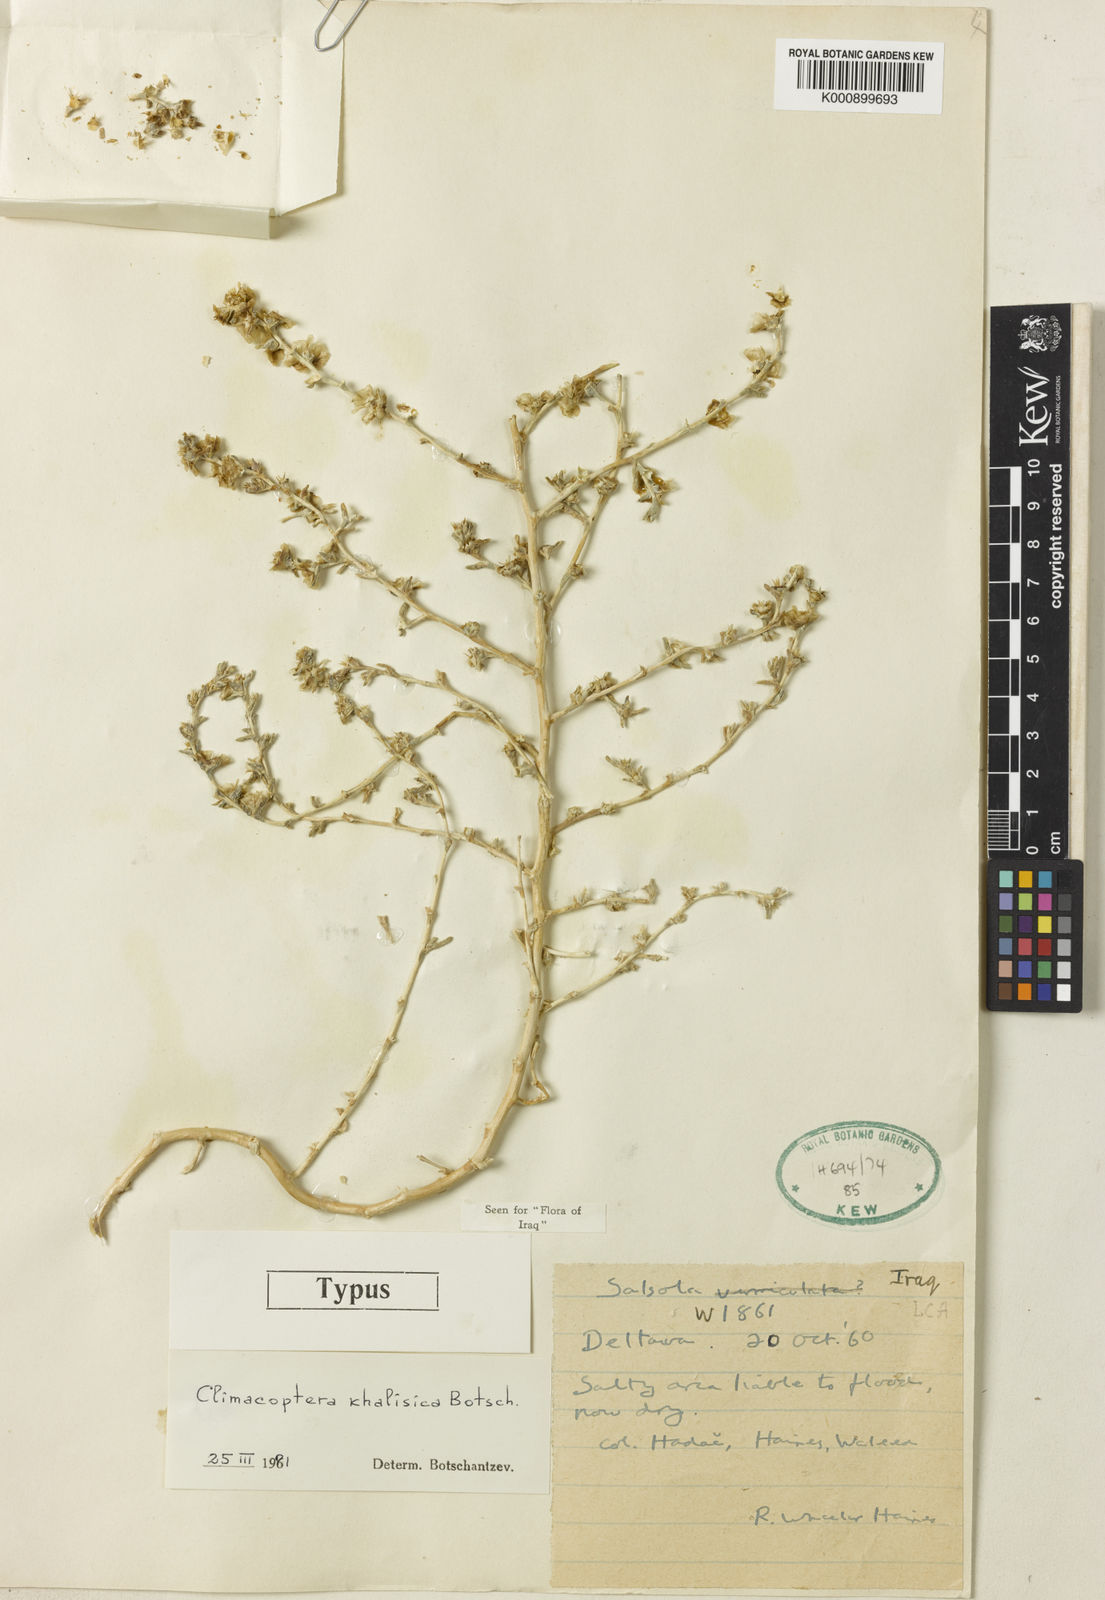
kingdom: Plantae
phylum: Tracheophyta
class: Magnoliopsida
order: Caryophyllales
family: Amaranthaceae
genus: Climacoptera
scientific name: Climacoptera turcomanica
